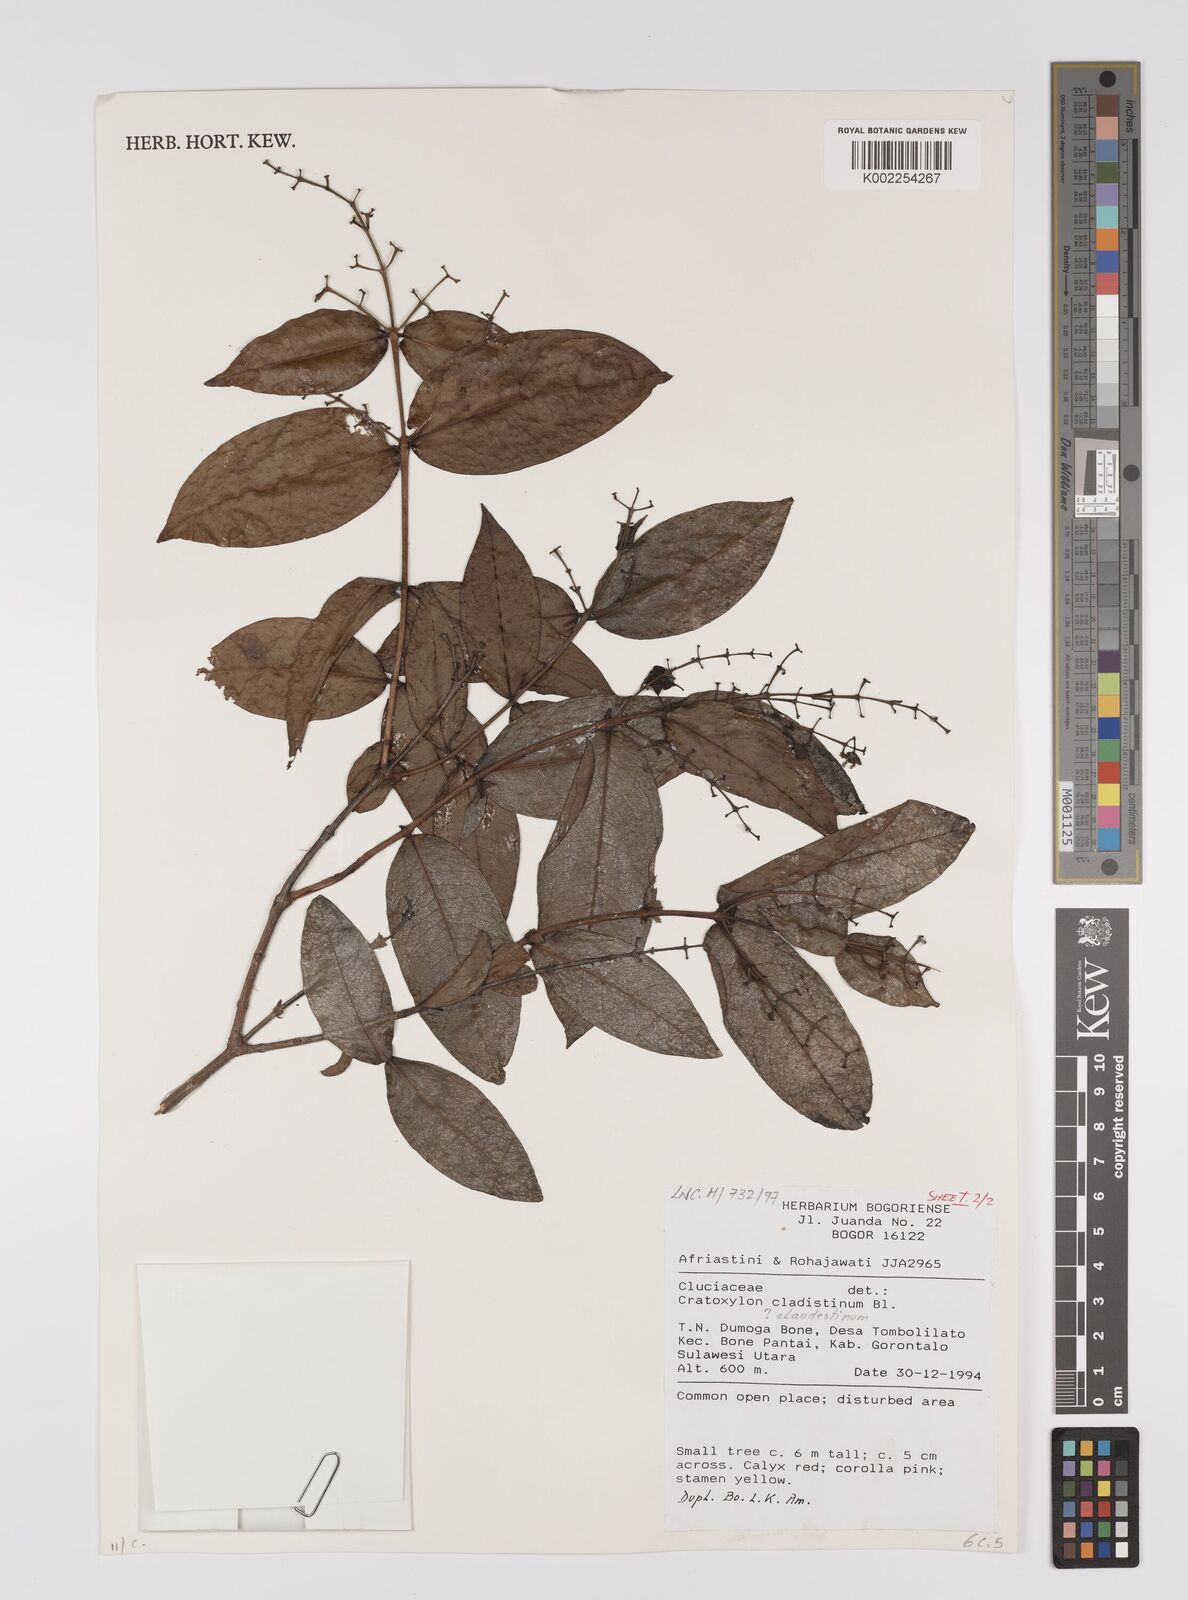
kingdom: Plantae
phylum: Tracheophyta
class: Magnoliopsida
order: Malpighiales
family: Hypericaceae
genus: Cratoxylum
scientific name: Cratoxylum sumatranum
